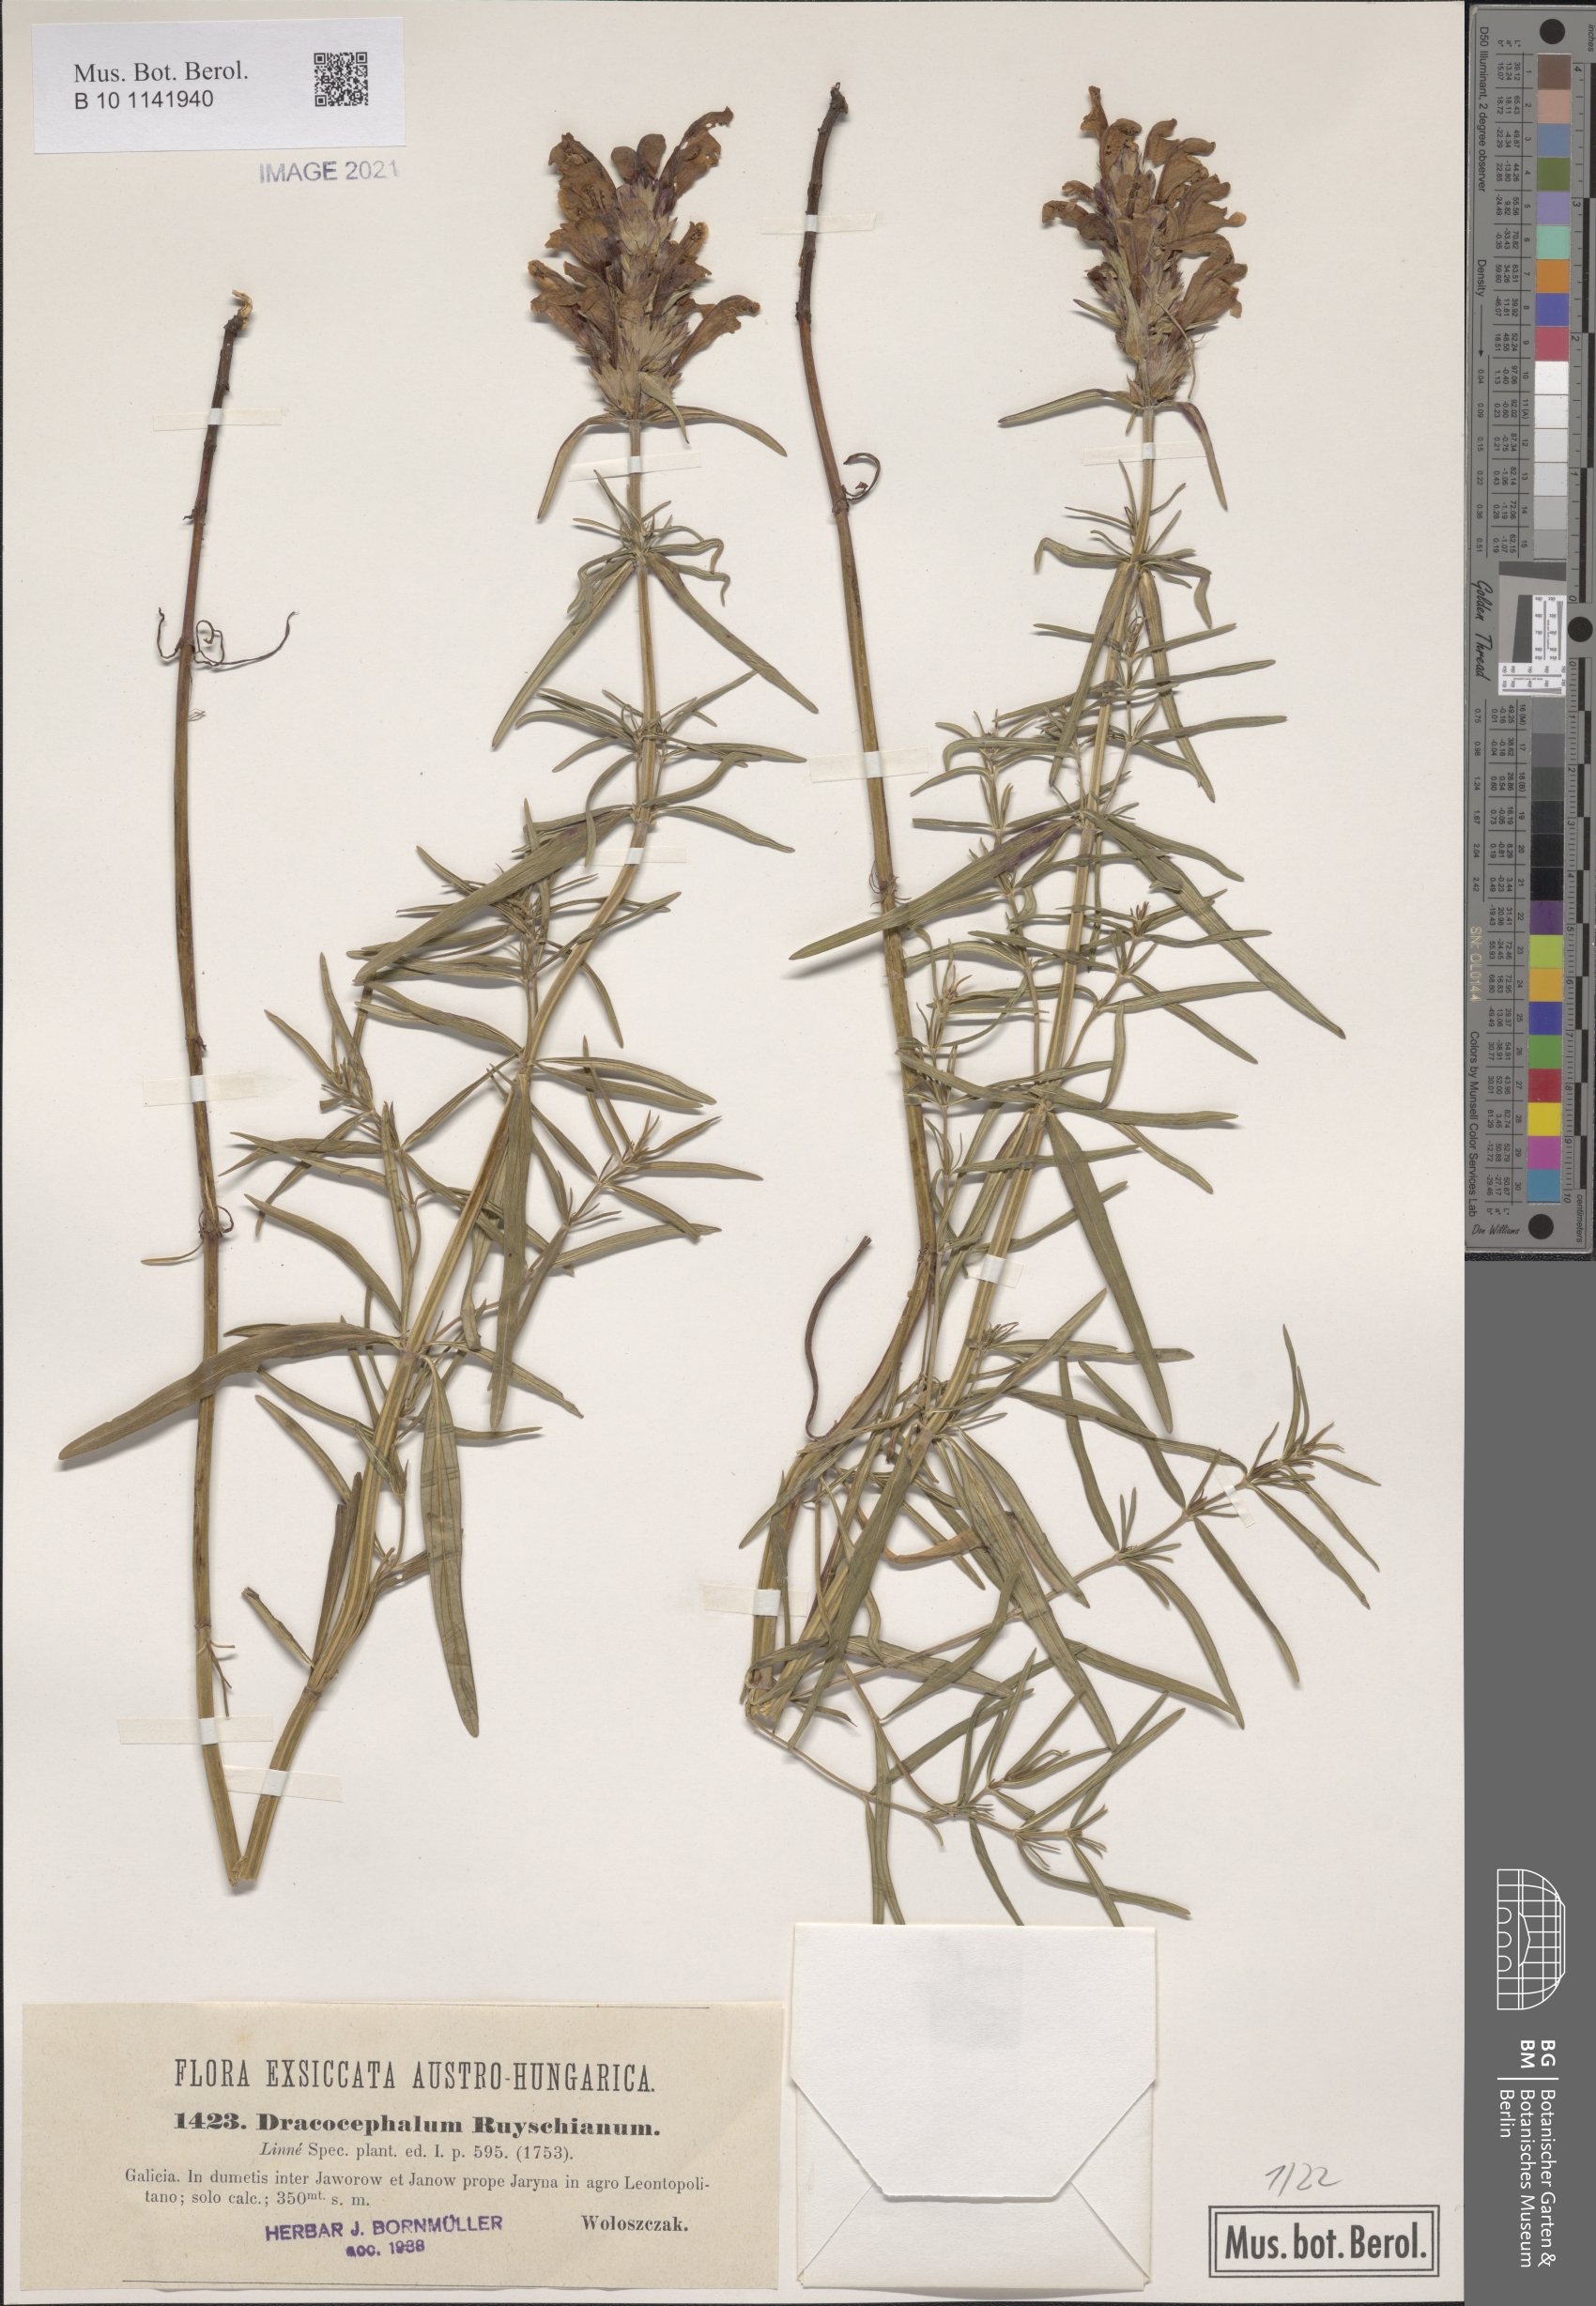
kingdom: Plantae
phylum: Tracheophyta
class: Magnoliopsida
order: Lamiales
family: Lamiaceae
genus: Dracocephalum
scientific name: Dracocephalum ruyschiana
